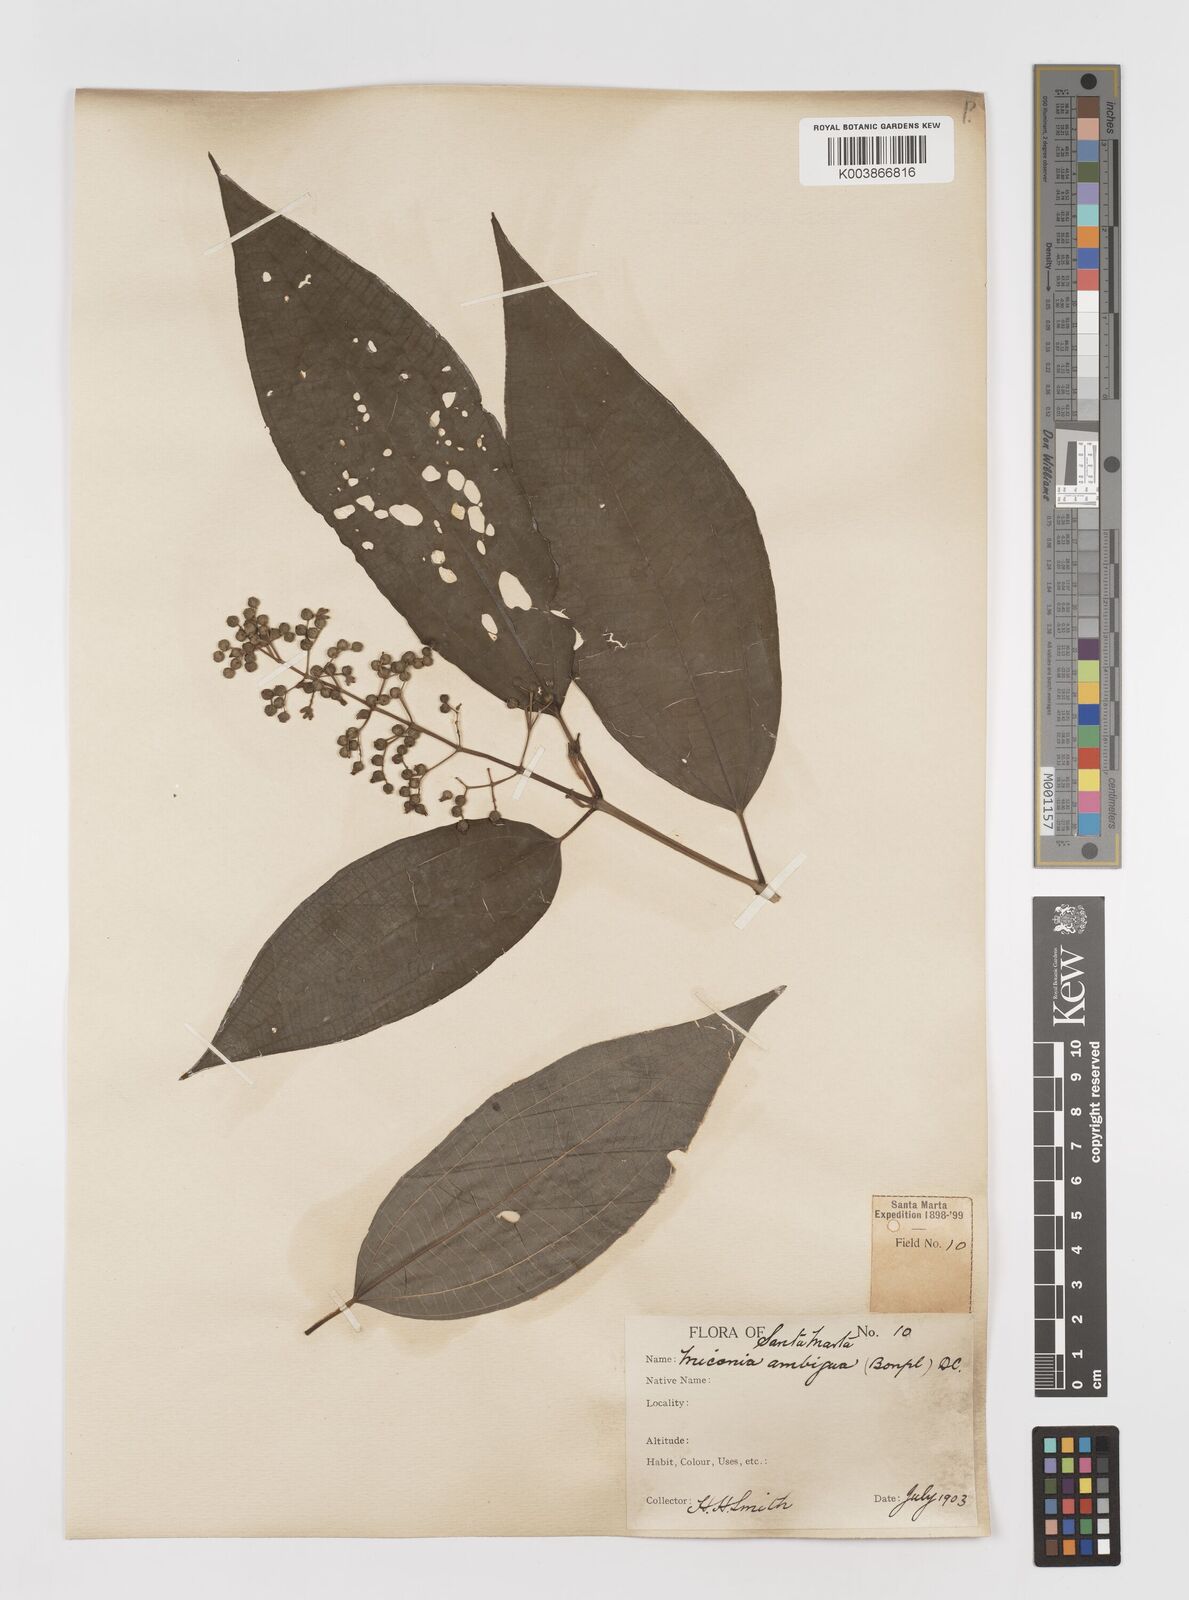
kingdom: Plantae
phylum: Tracheophyta
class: Magnoliopsida
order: Myrtales
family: Melastomataceae
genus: Miconia
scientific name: Miconia virescens
